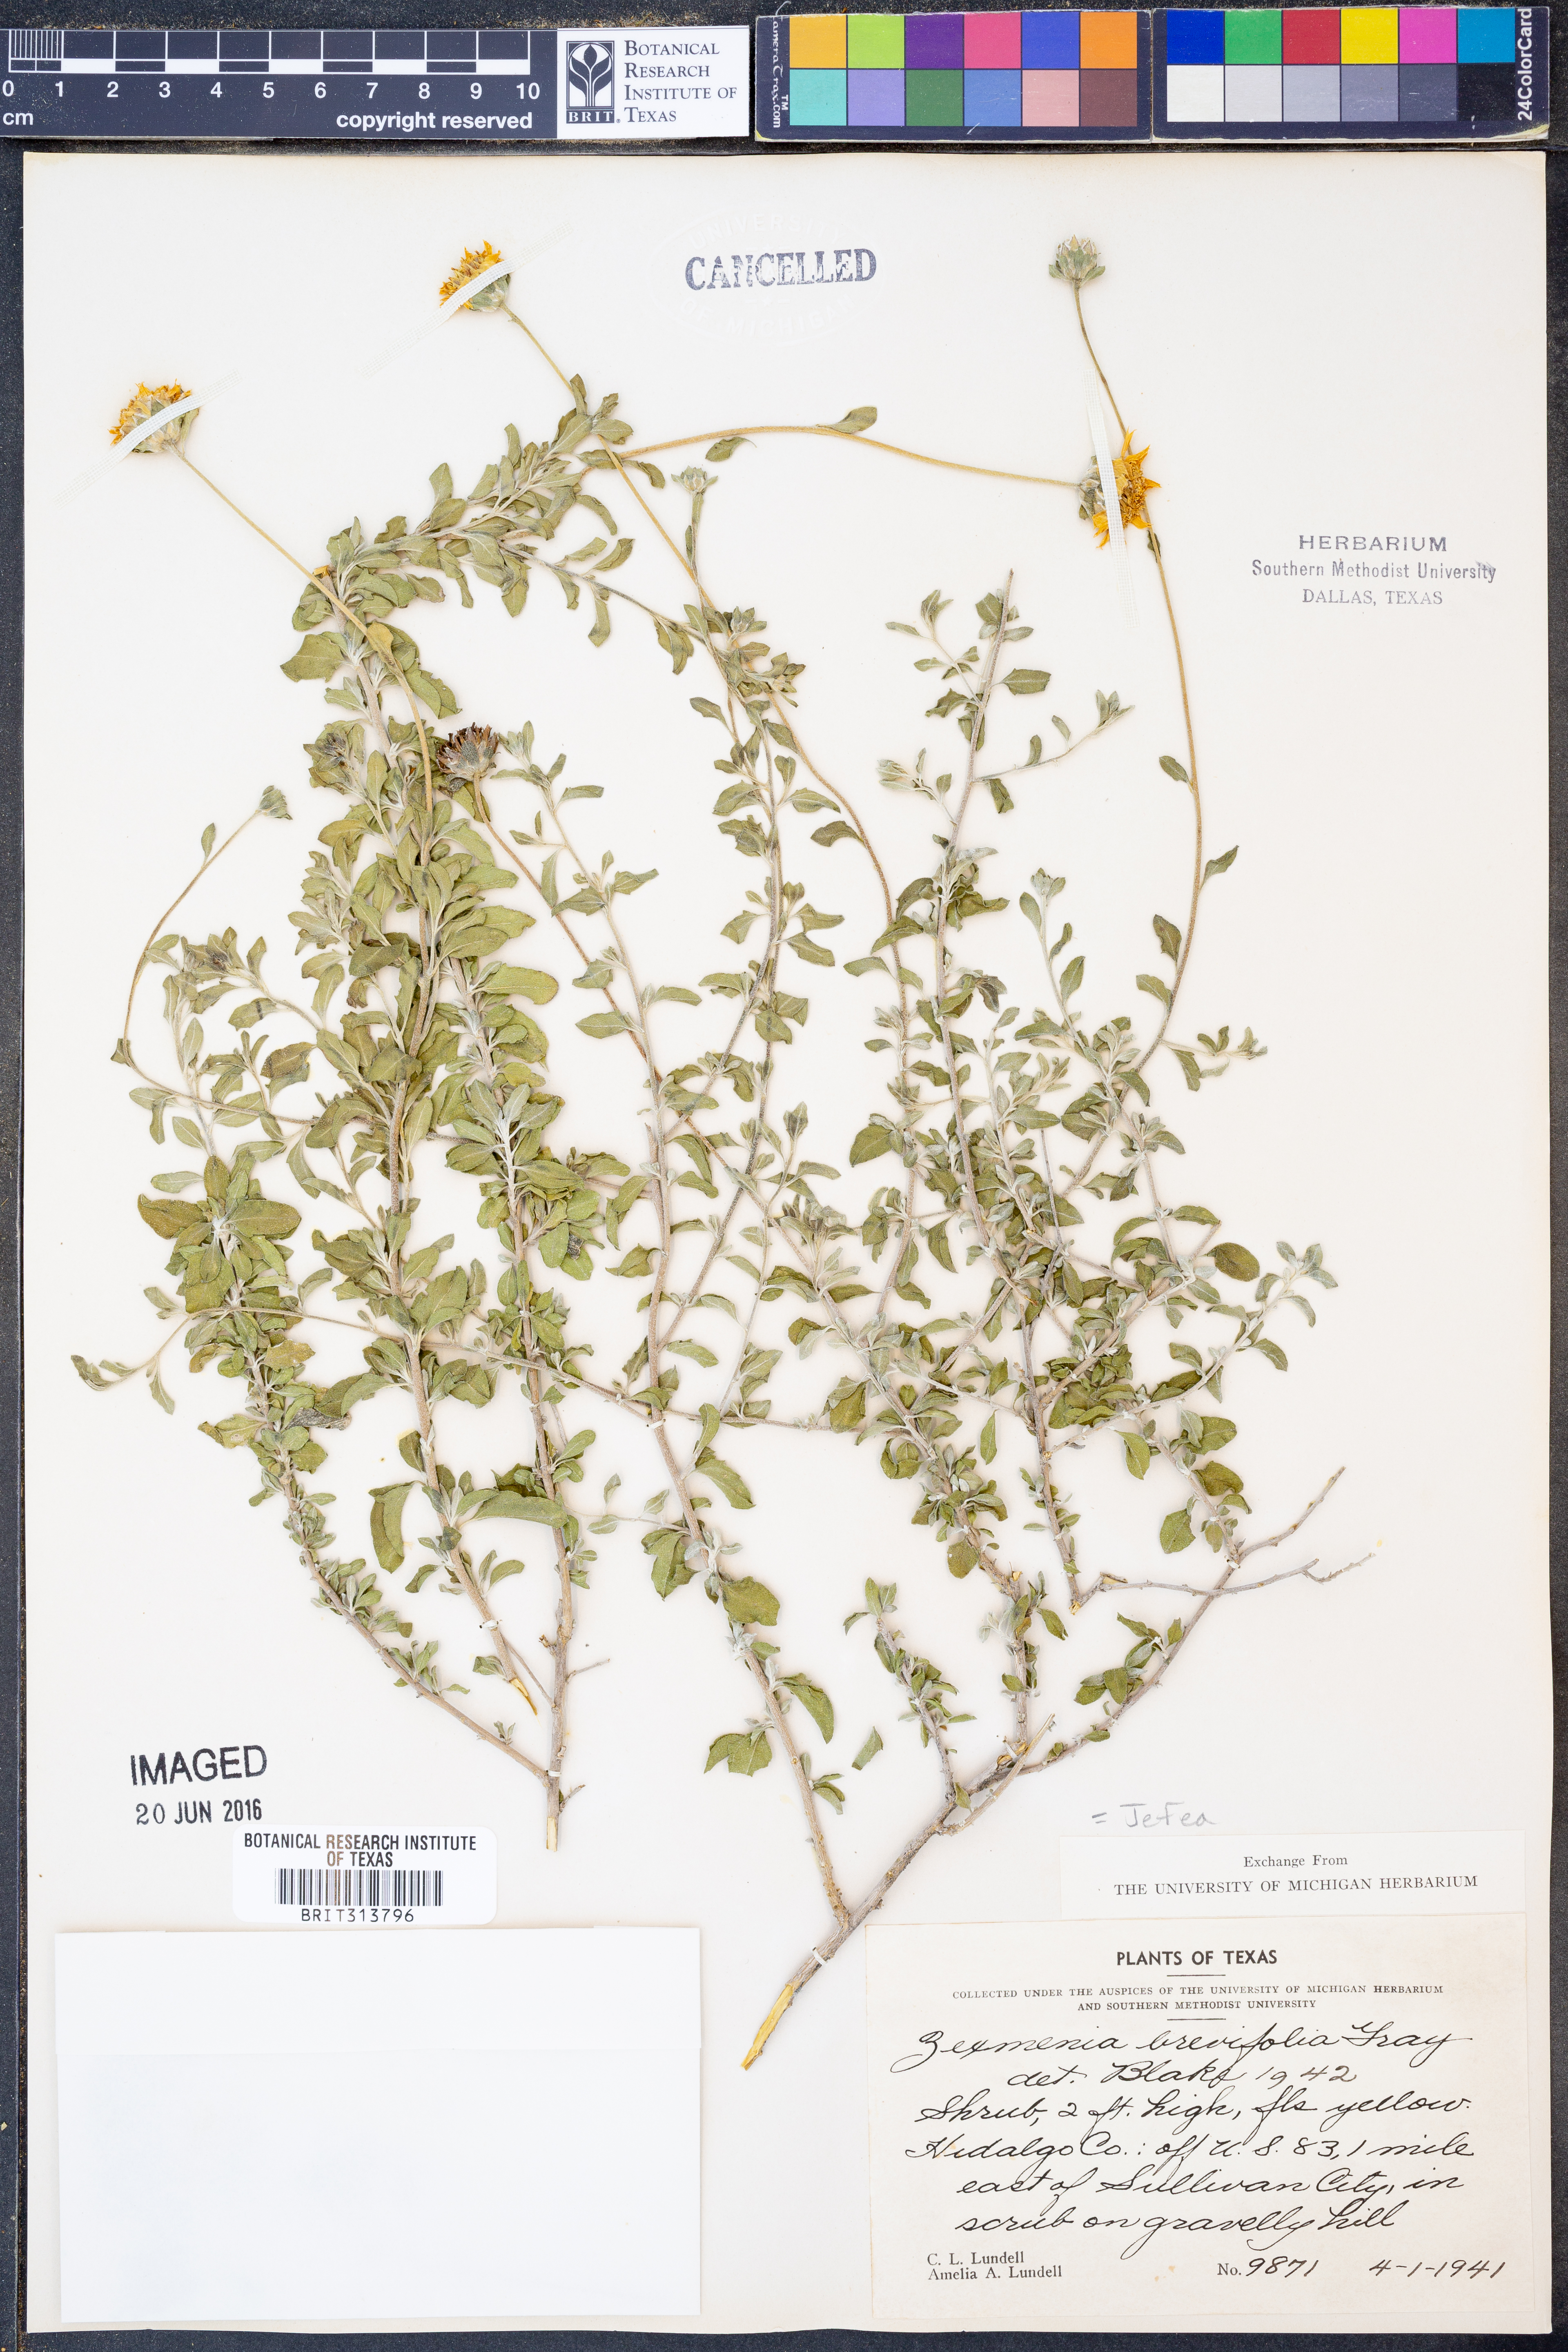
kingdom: Plantae
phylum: Tracheophyta
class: Magnoliopsida
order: Asterales
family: Asteraceae
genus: Jefea
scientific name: Jefea brevifolia
